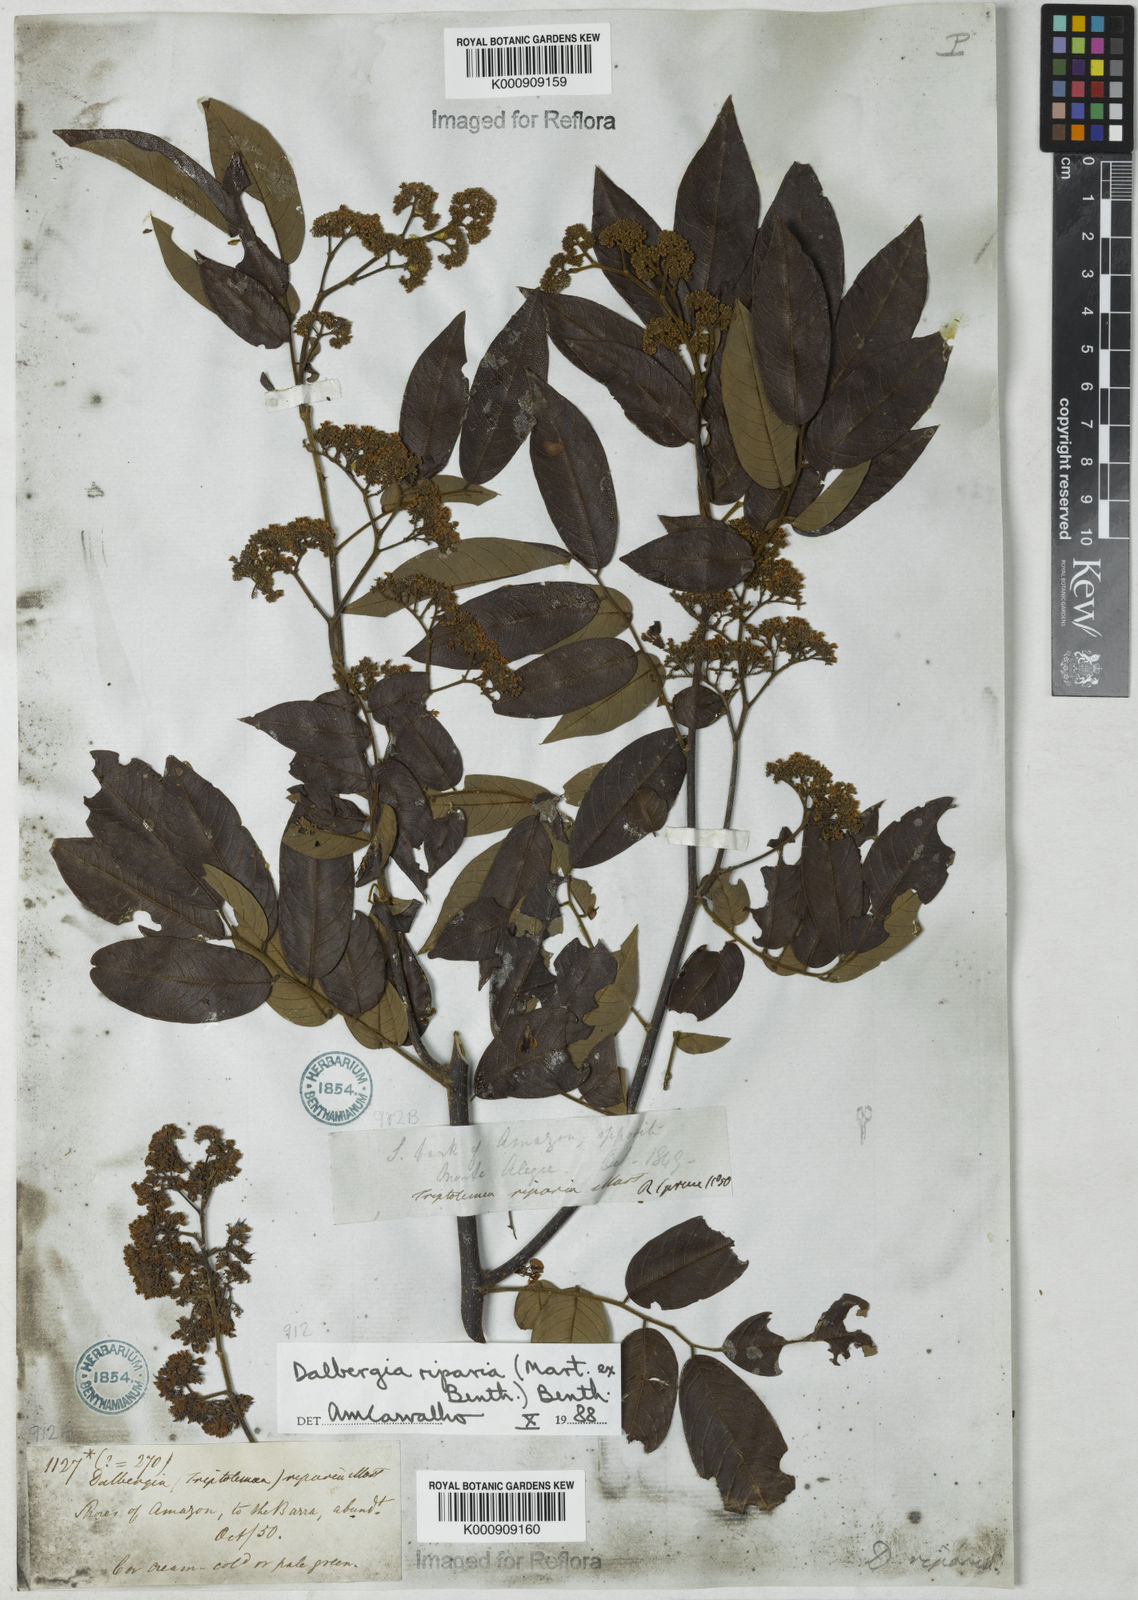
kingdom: Plantae
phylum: Tracheophyta
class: Magnoliopsida
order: Fabales
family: Fabaceae
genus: Dalbergia
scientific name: Dalbergia riparia
